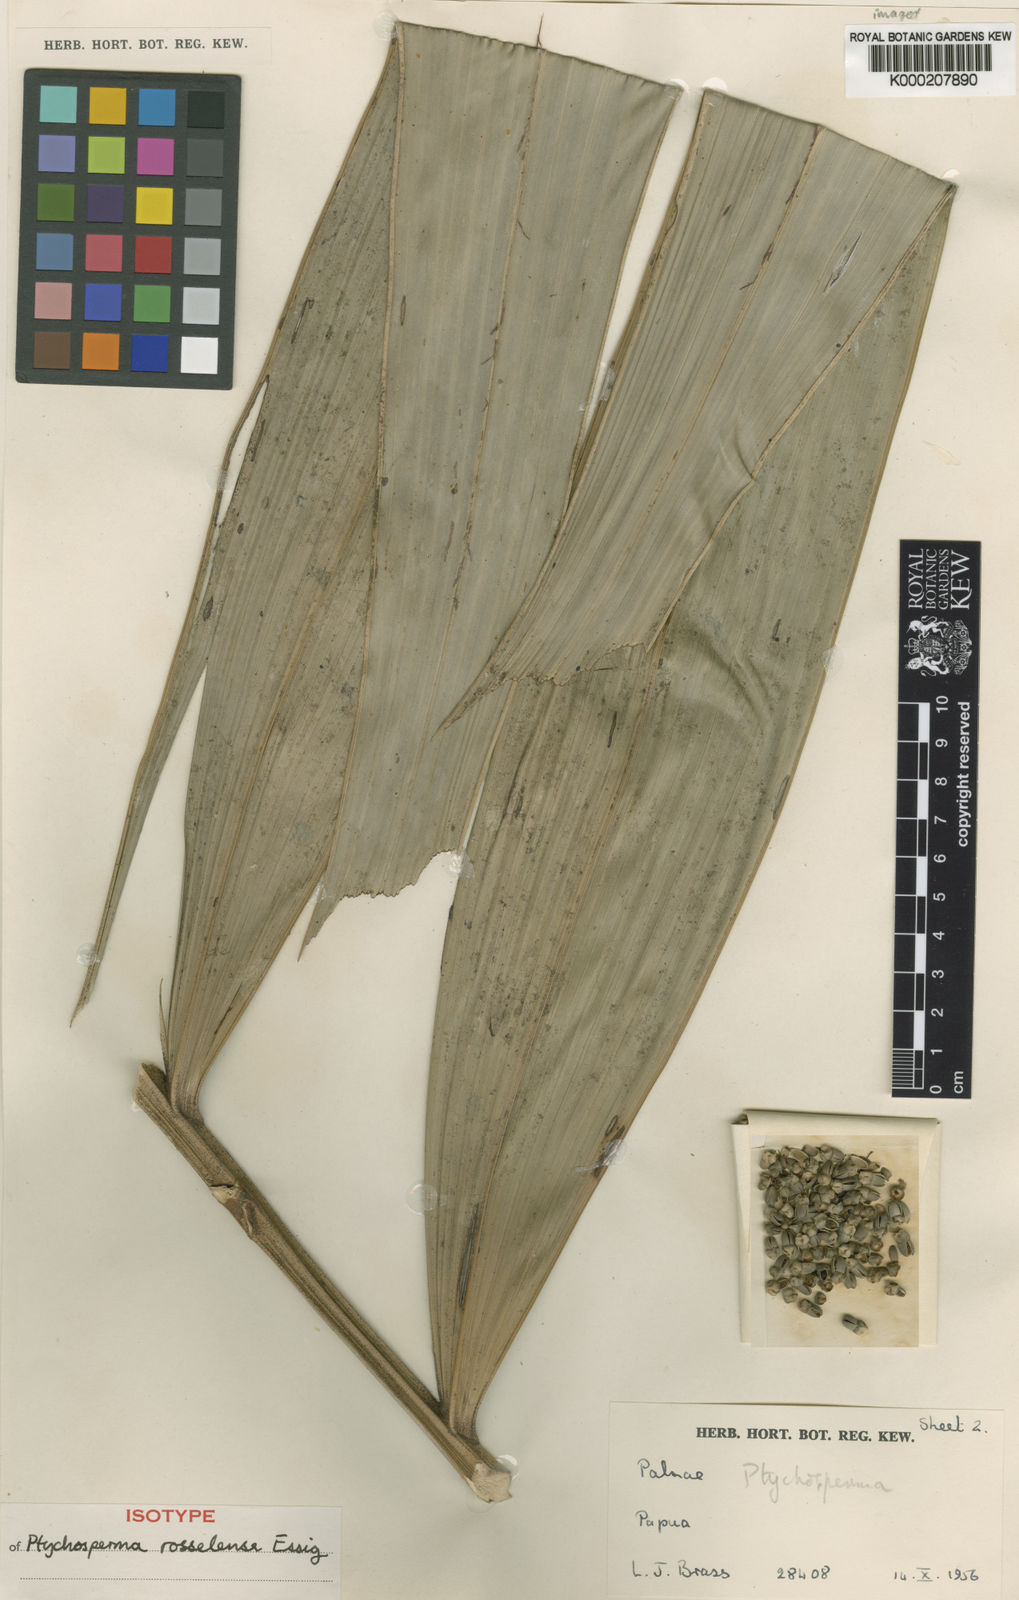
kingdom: Plantae
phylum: Tracheophyta
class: Liliopsida
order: Arecales
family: Arecaceae
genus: Ptychosperma
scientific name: Ptychosperma rosselense
